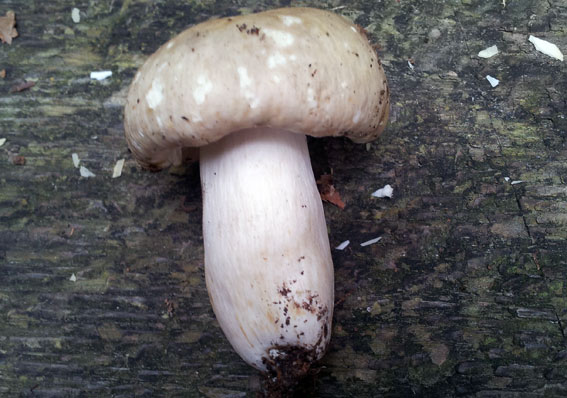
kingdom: Fungi
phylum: Basidiomycota
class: Agaricomycetes
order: Russulales
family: Russulaceae
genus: Russula
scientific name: Russula violeipes
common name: ferskengul skørhat
